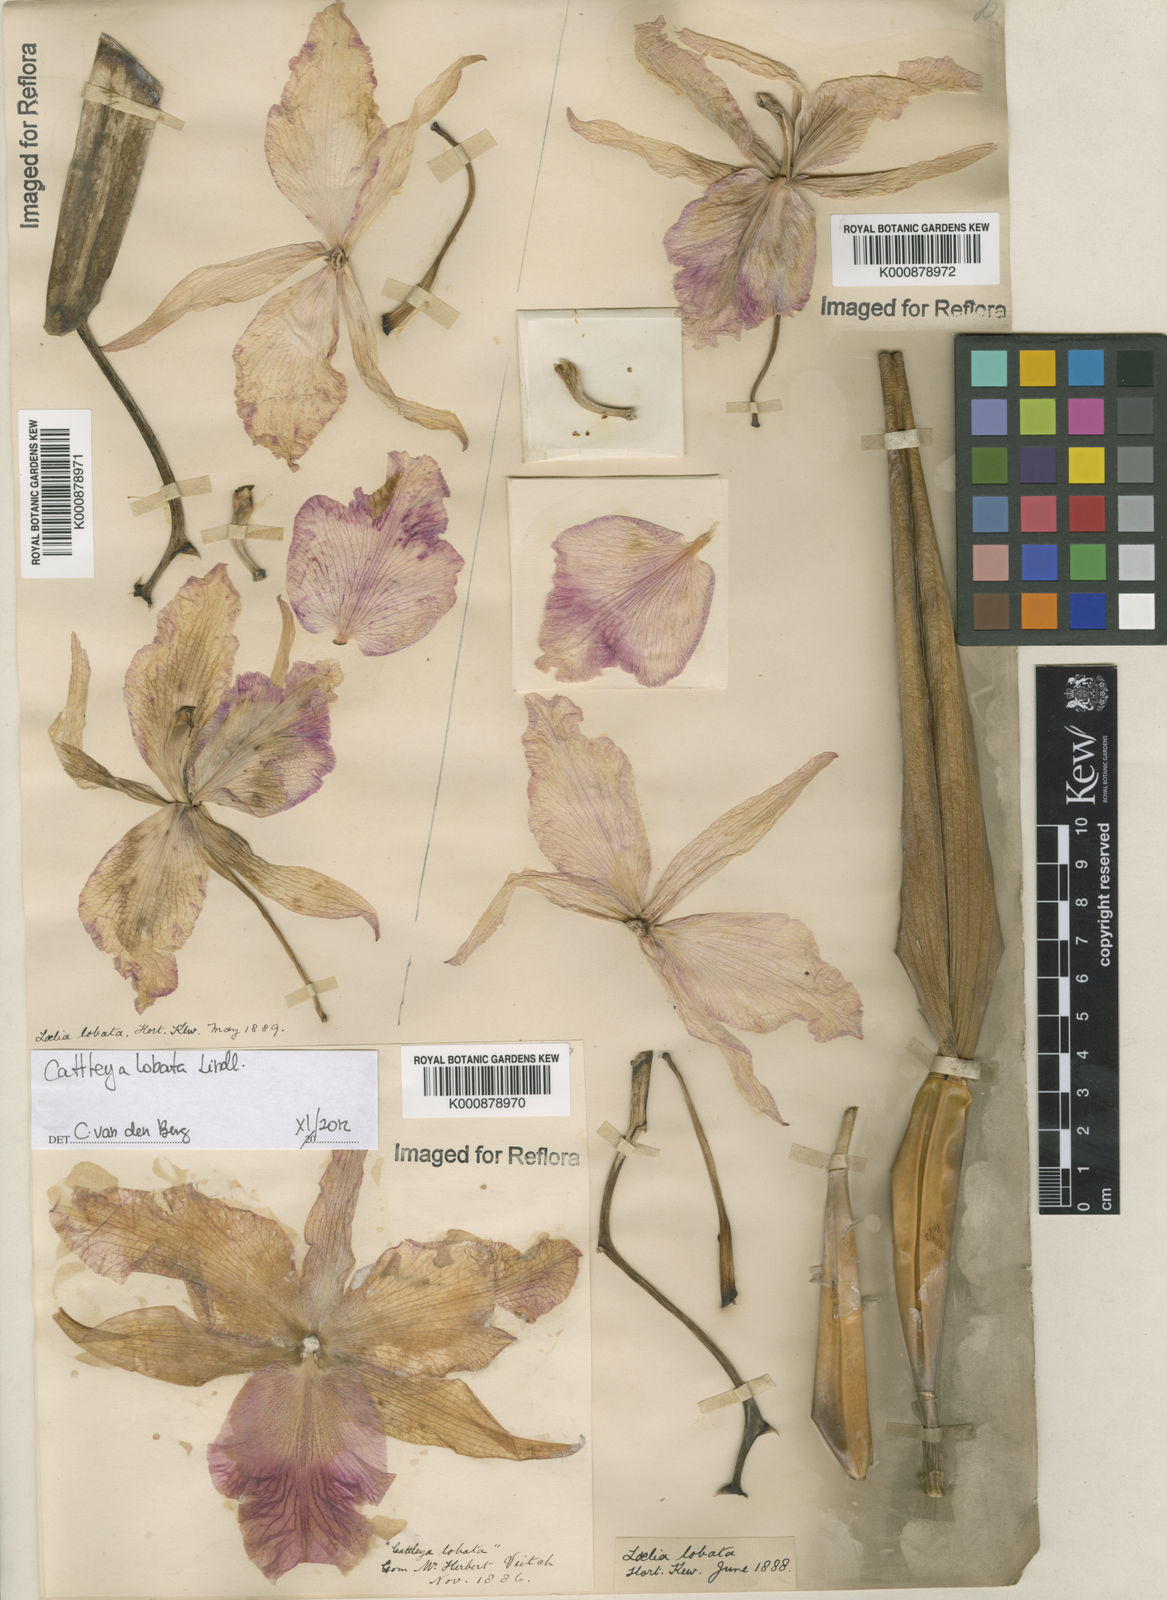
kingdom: Plantae
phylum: Tracheophyta
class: Liliopsida
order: Asparagales
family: Orchidaceae
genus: Cattleya
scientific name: Cattleya lobata
